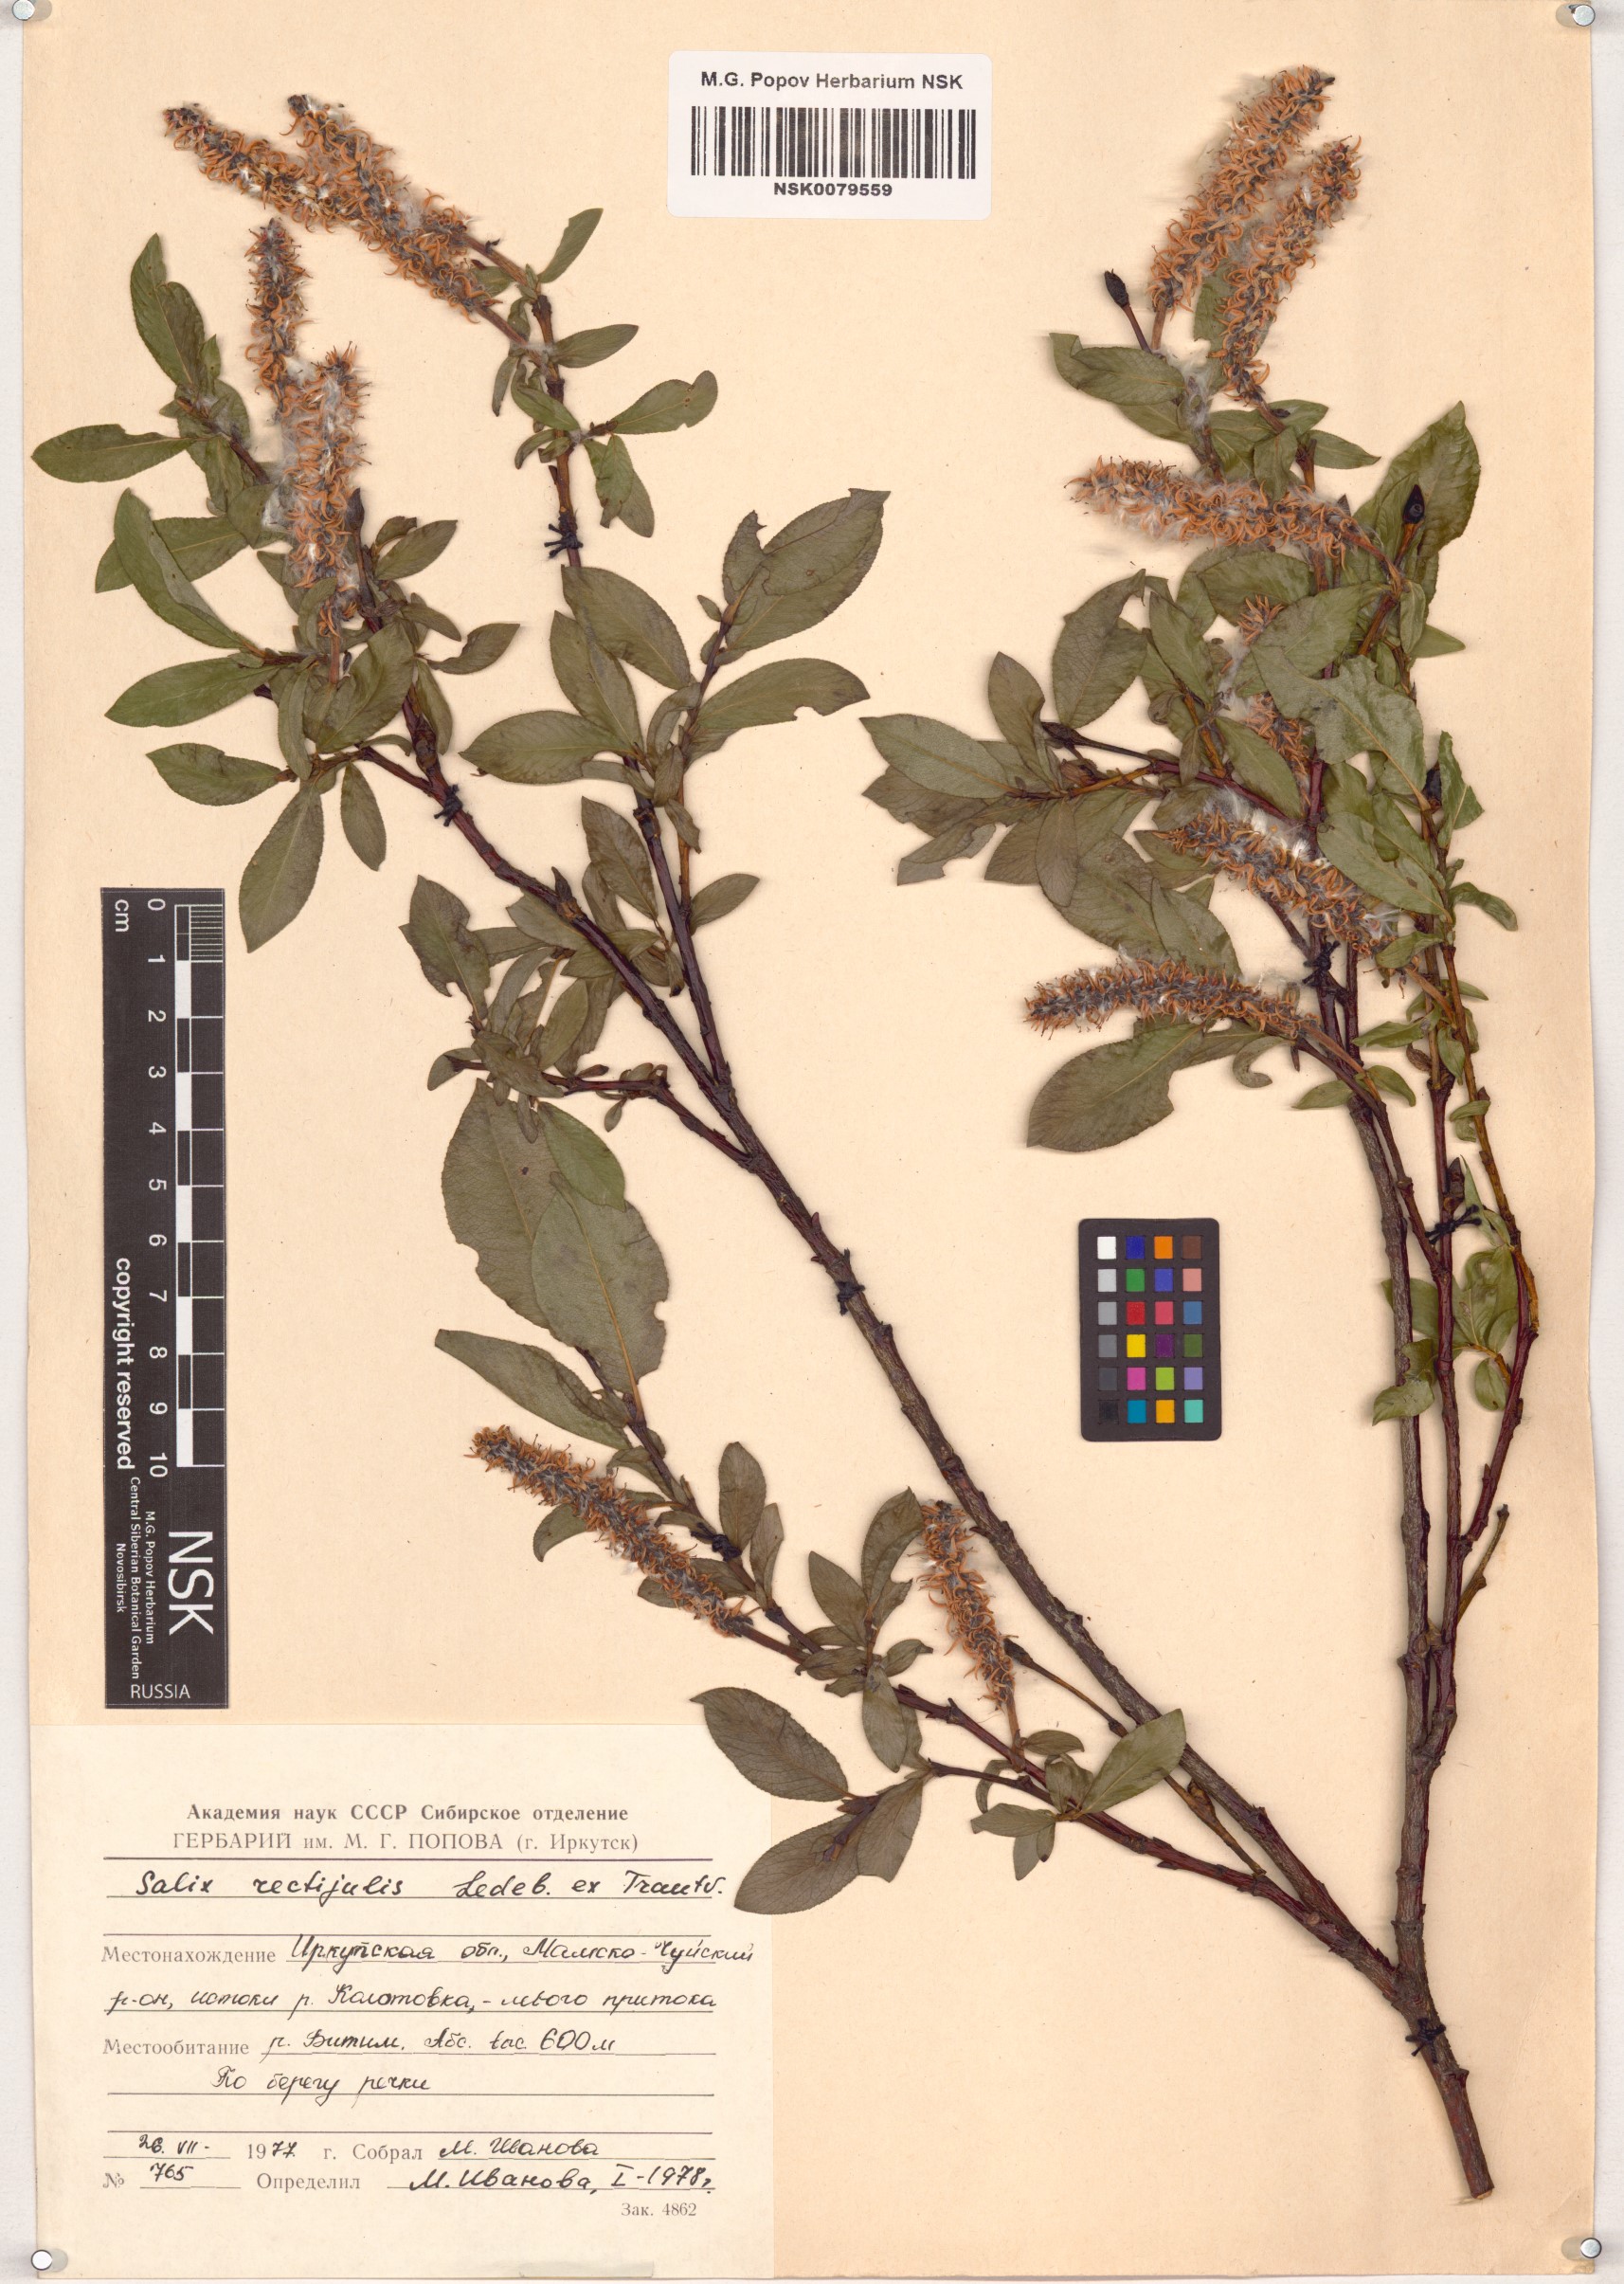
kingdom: Plantae
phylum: Tracheophyta
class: Magnoliopsida
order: Malpighiales
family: Salicaceae
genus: Salix
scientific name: Salix rectijulis
